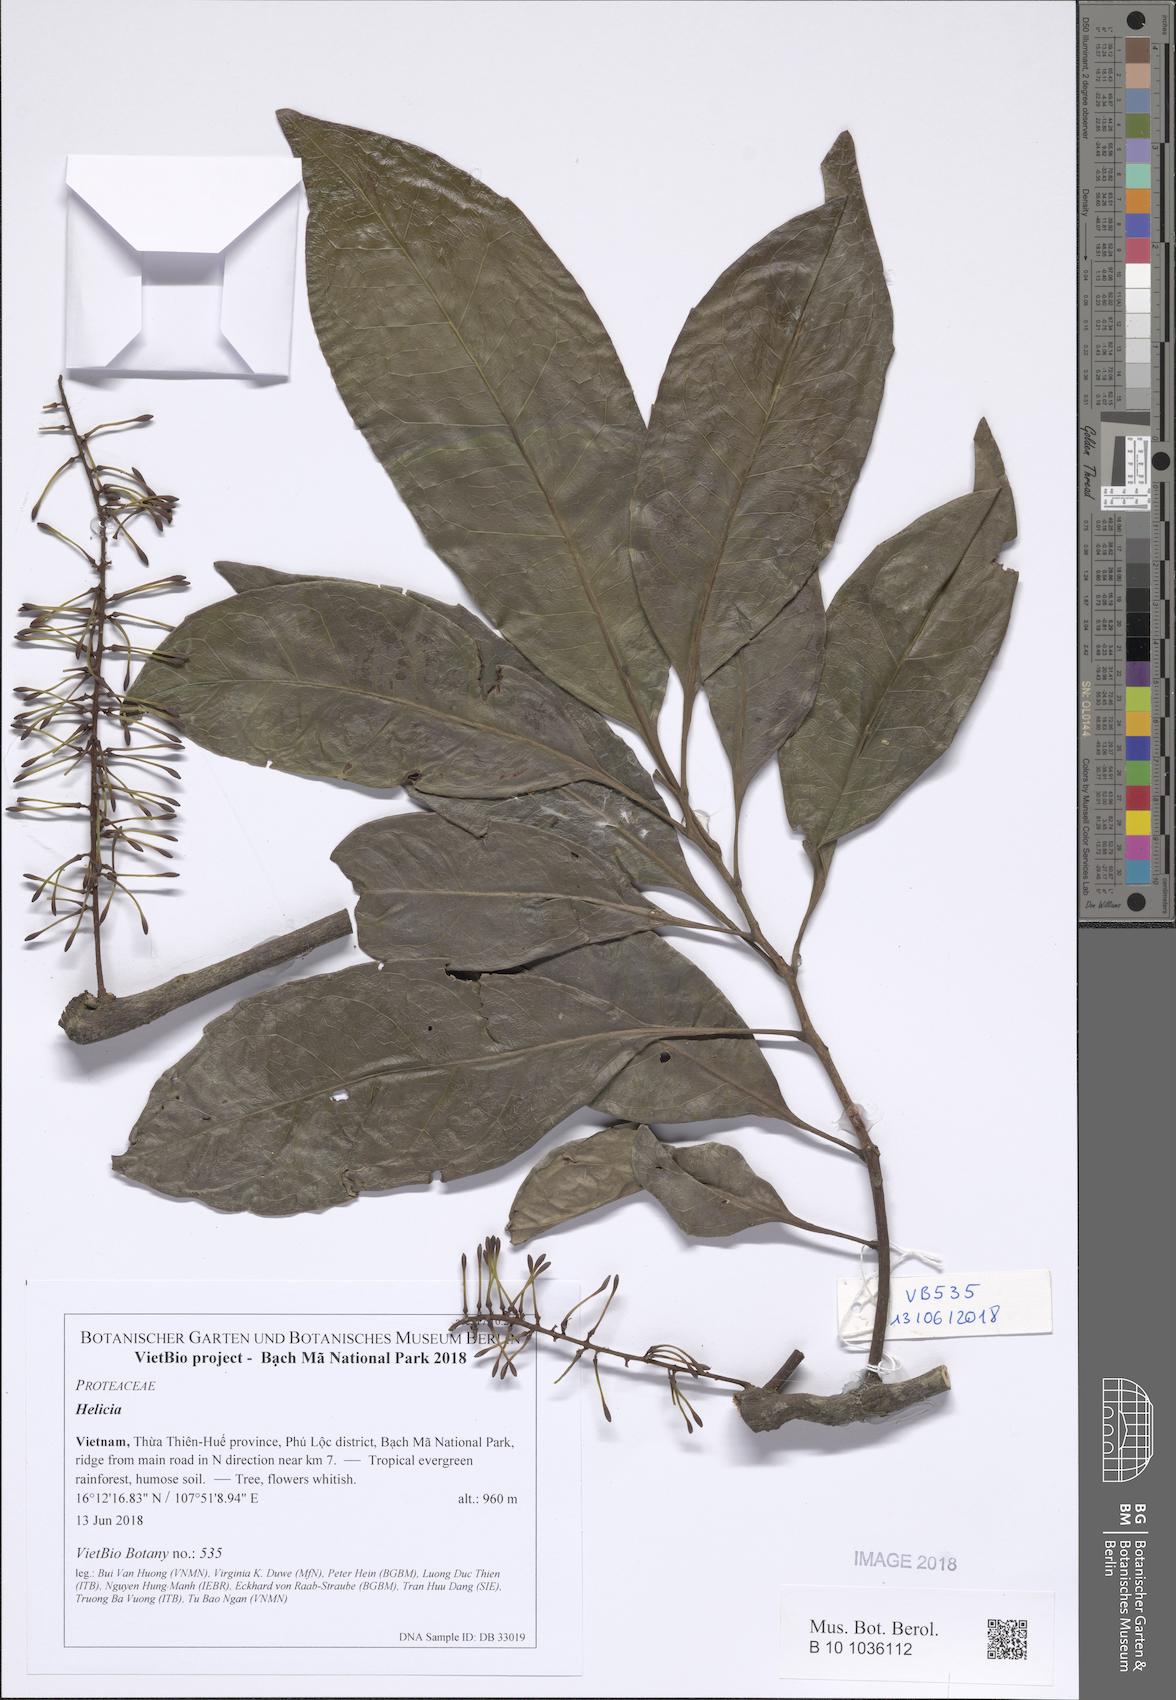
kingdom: Plantae
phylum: Tracheophyta
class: Magnoliopsida
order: Proteales
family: Proteaceae
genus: Helicia
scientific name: Helicia longipetiolata
